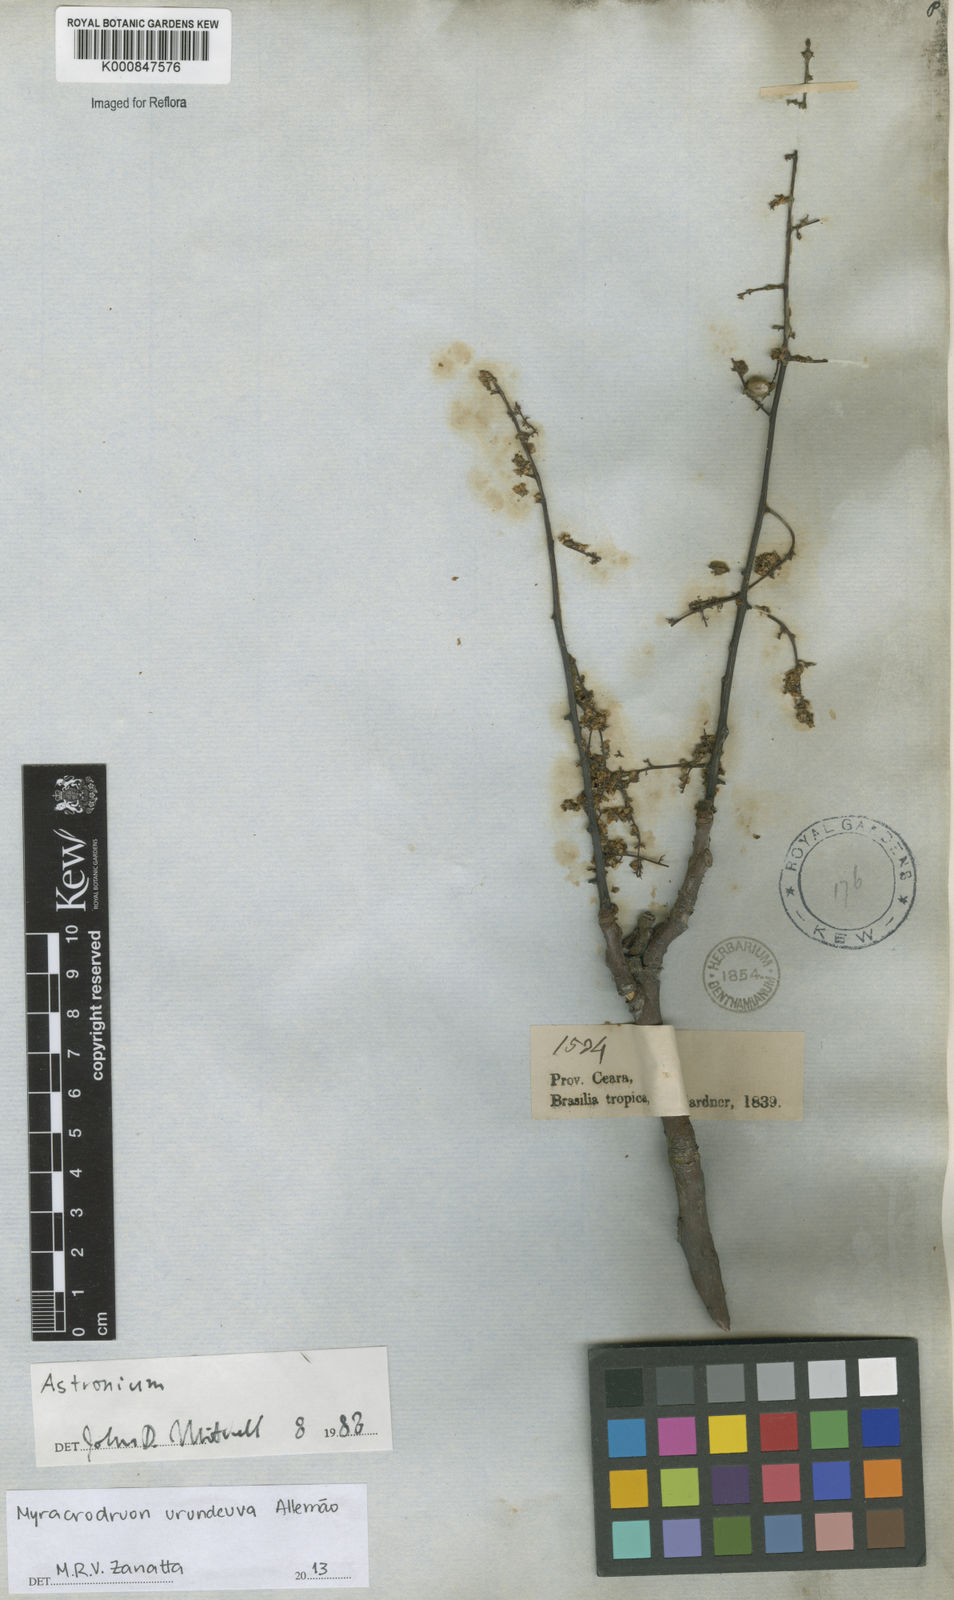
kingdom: Plantae
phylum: Tracheophyta
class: Magnoliopsida
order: Sapindales
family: Anacardiaceae
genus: Astronium
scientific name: Astronium
